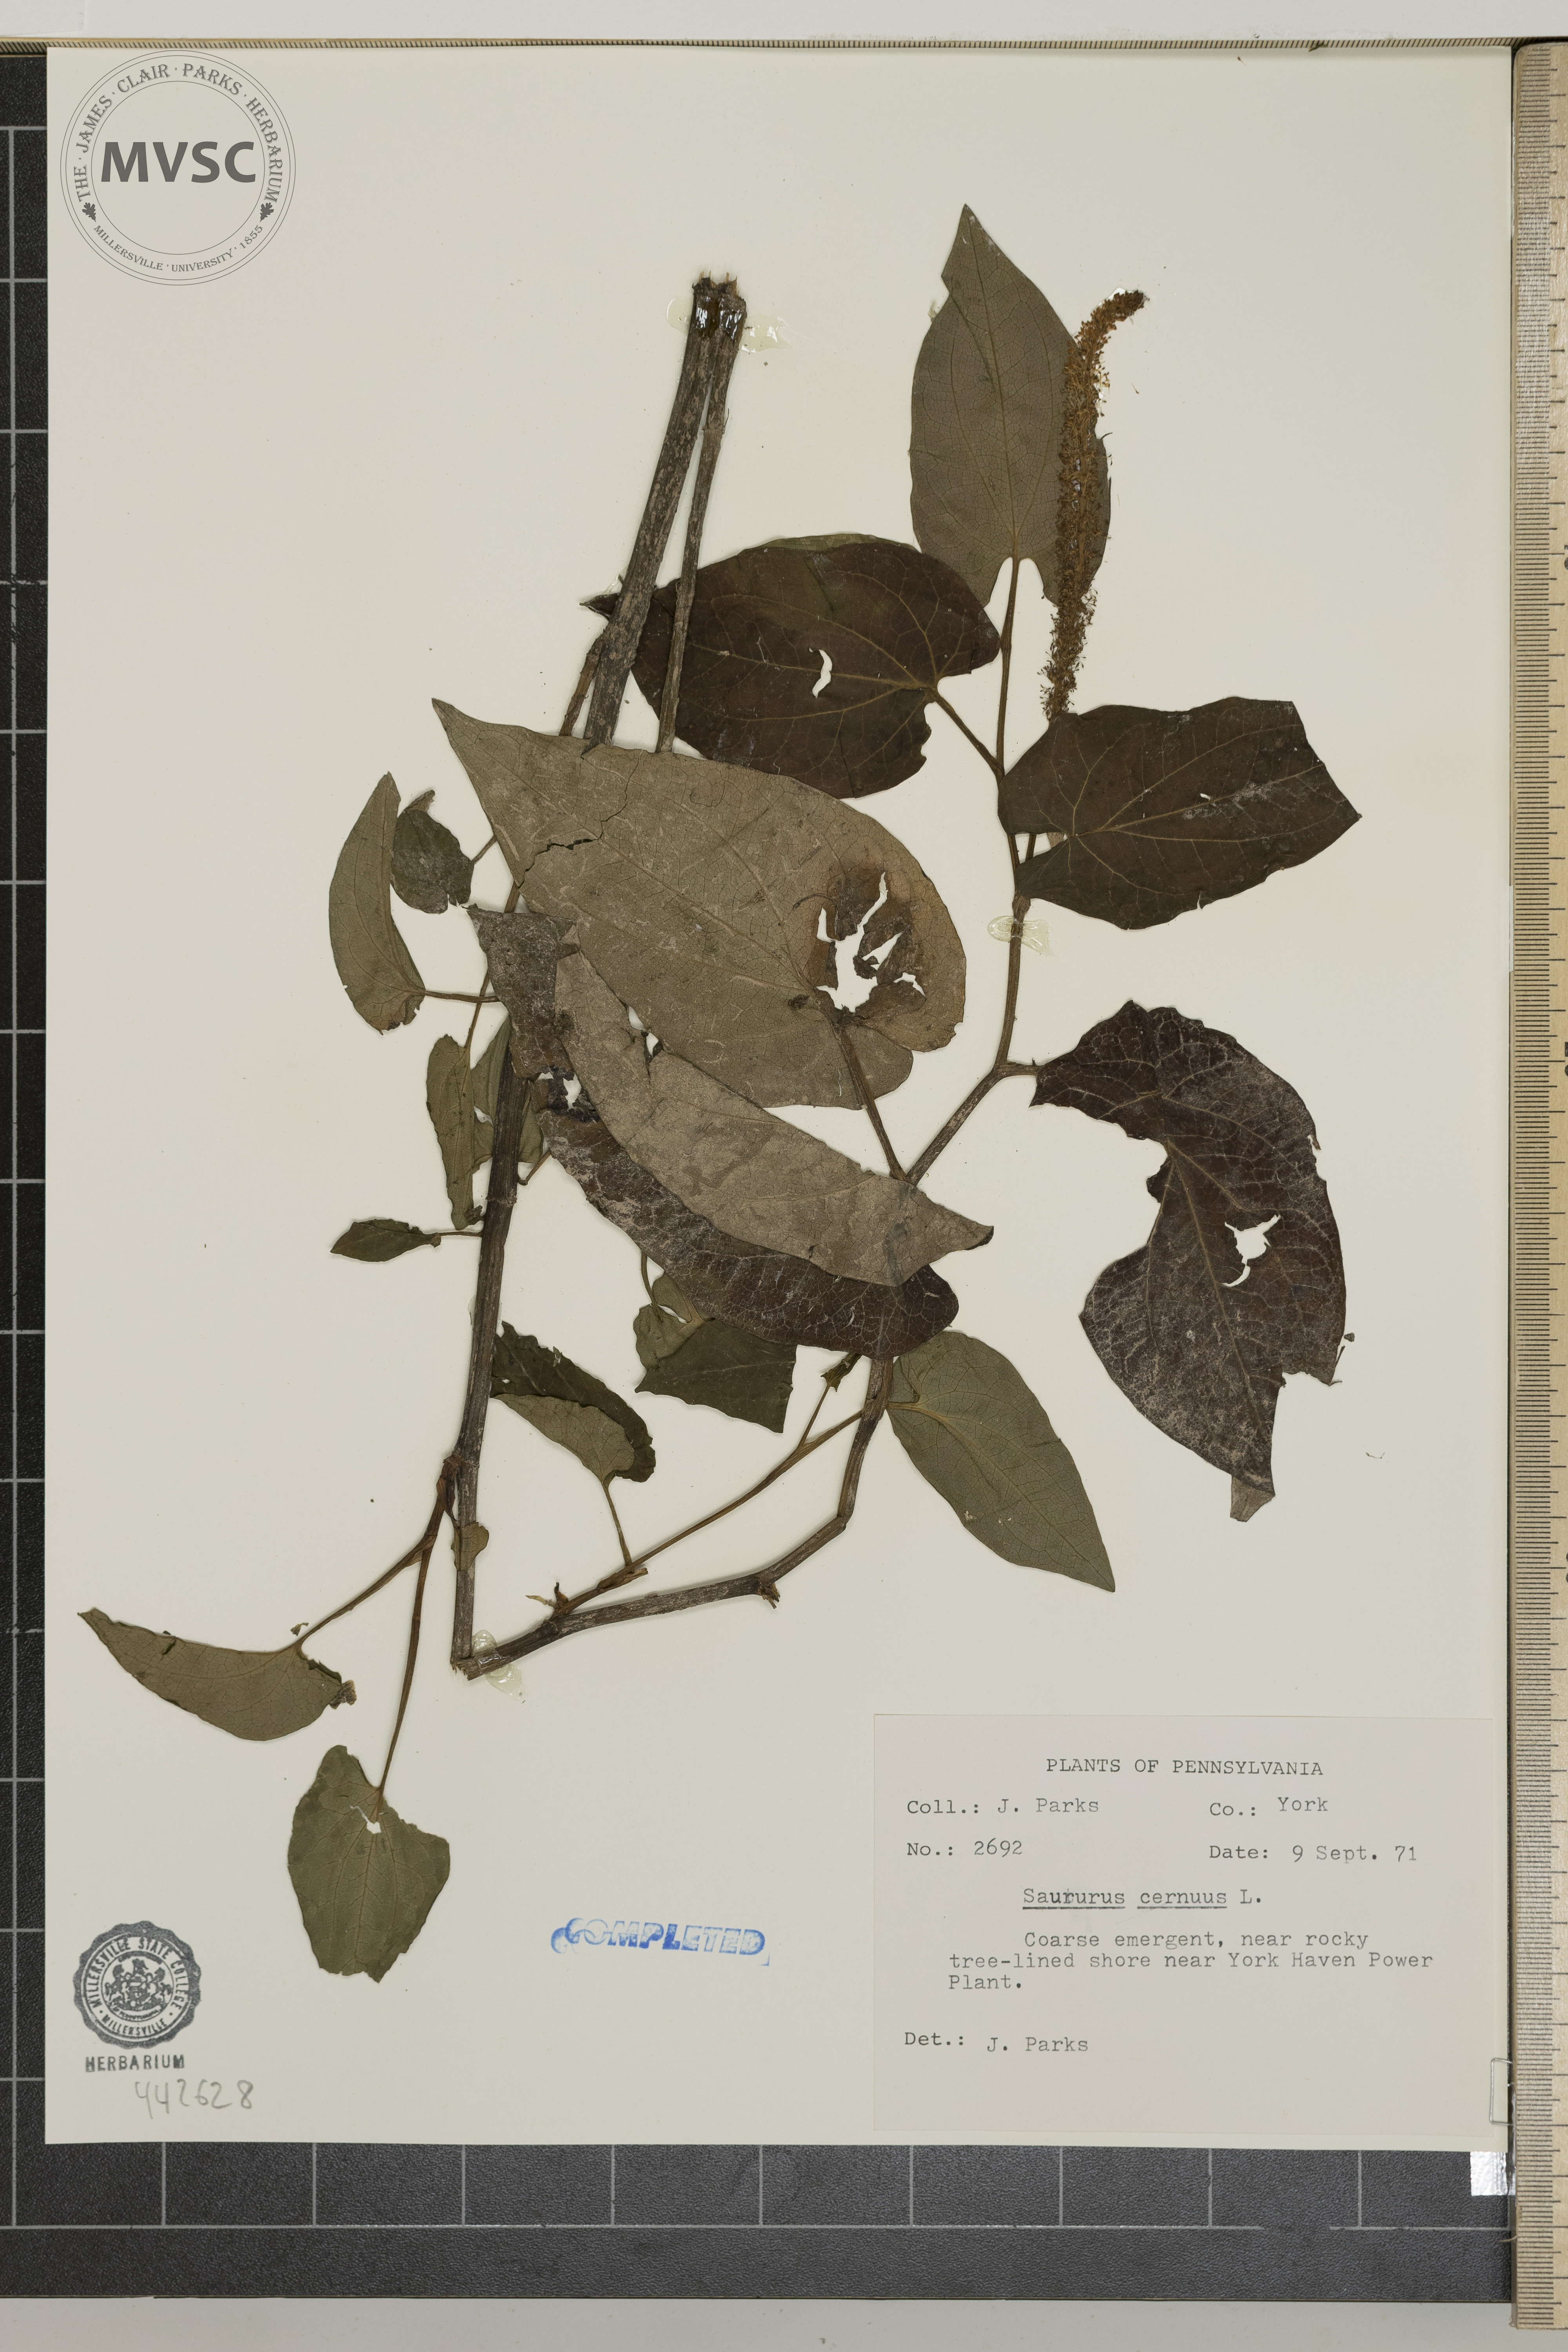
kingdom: Plantae
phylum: Tracheophyta
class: Magnoliopsida
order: Piperales
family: Saururaceae
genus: Saururus
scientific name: Saururus cernuus
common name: Lizard's-tail
